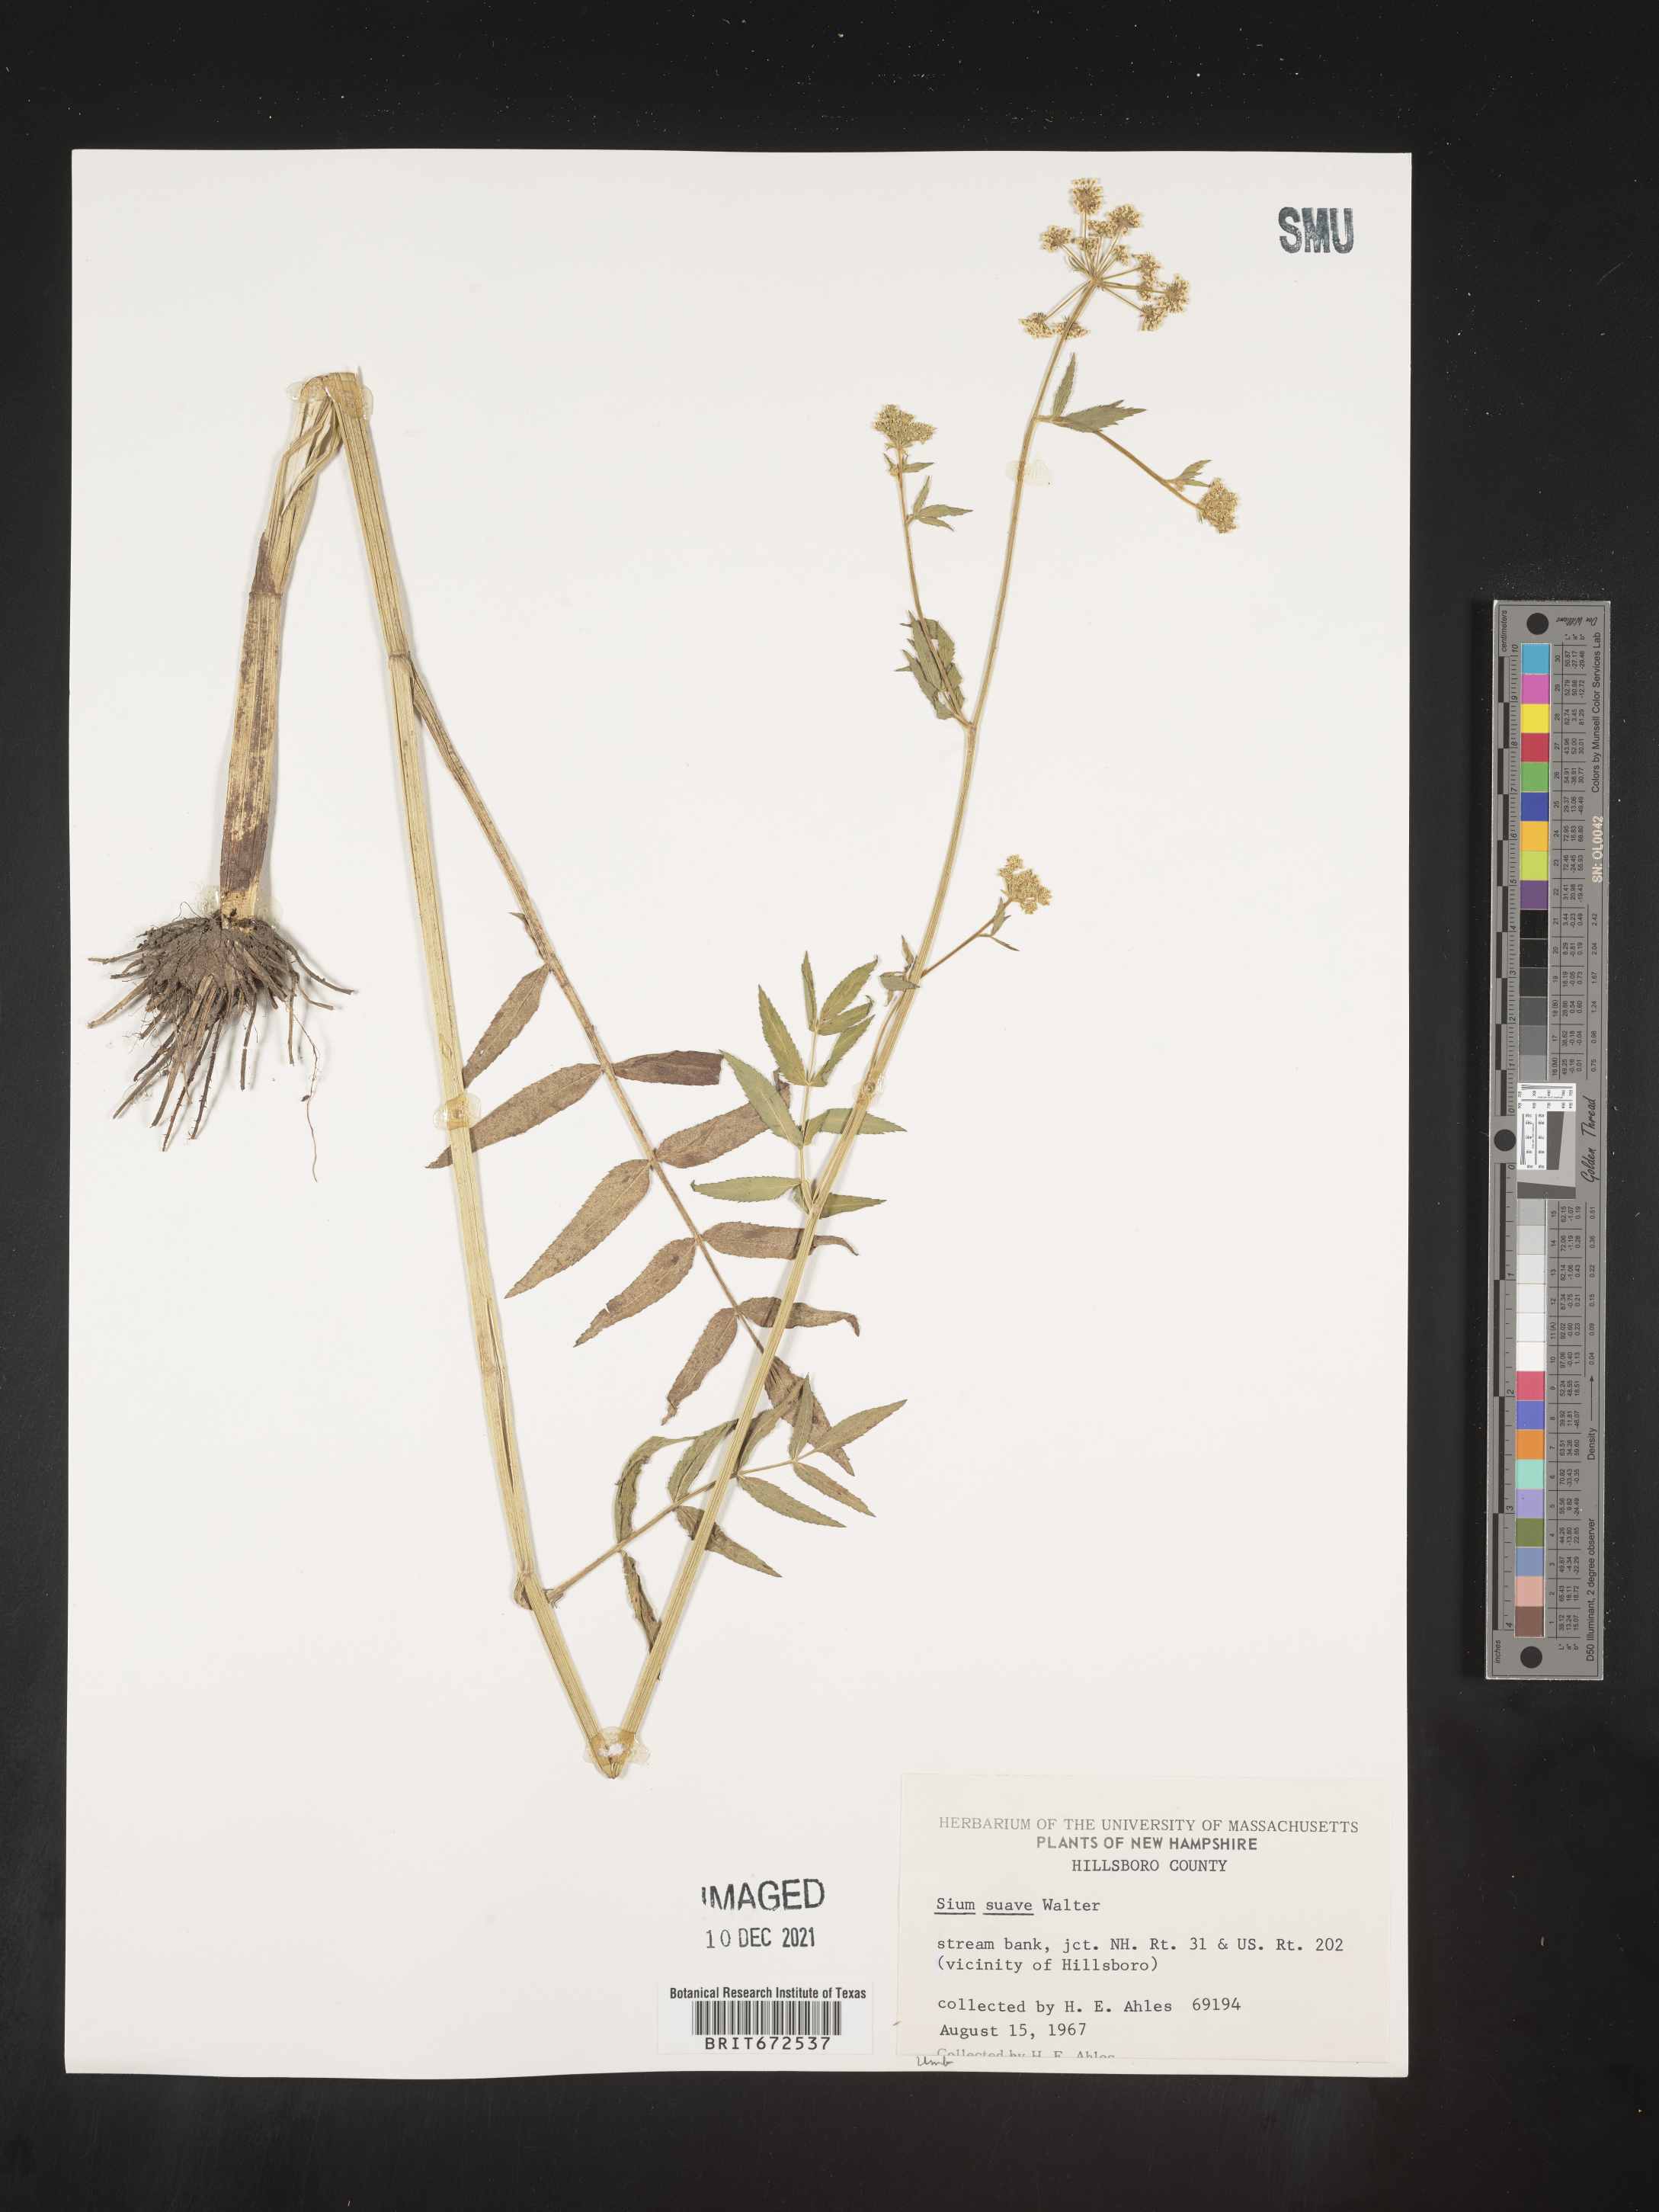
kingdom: Plantae
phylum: Tracheophyta
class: Magnoliopsida
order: Apiales
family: Apiaceae
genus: Sium
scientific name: Sium suave
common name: Hemlock water-parsnip
